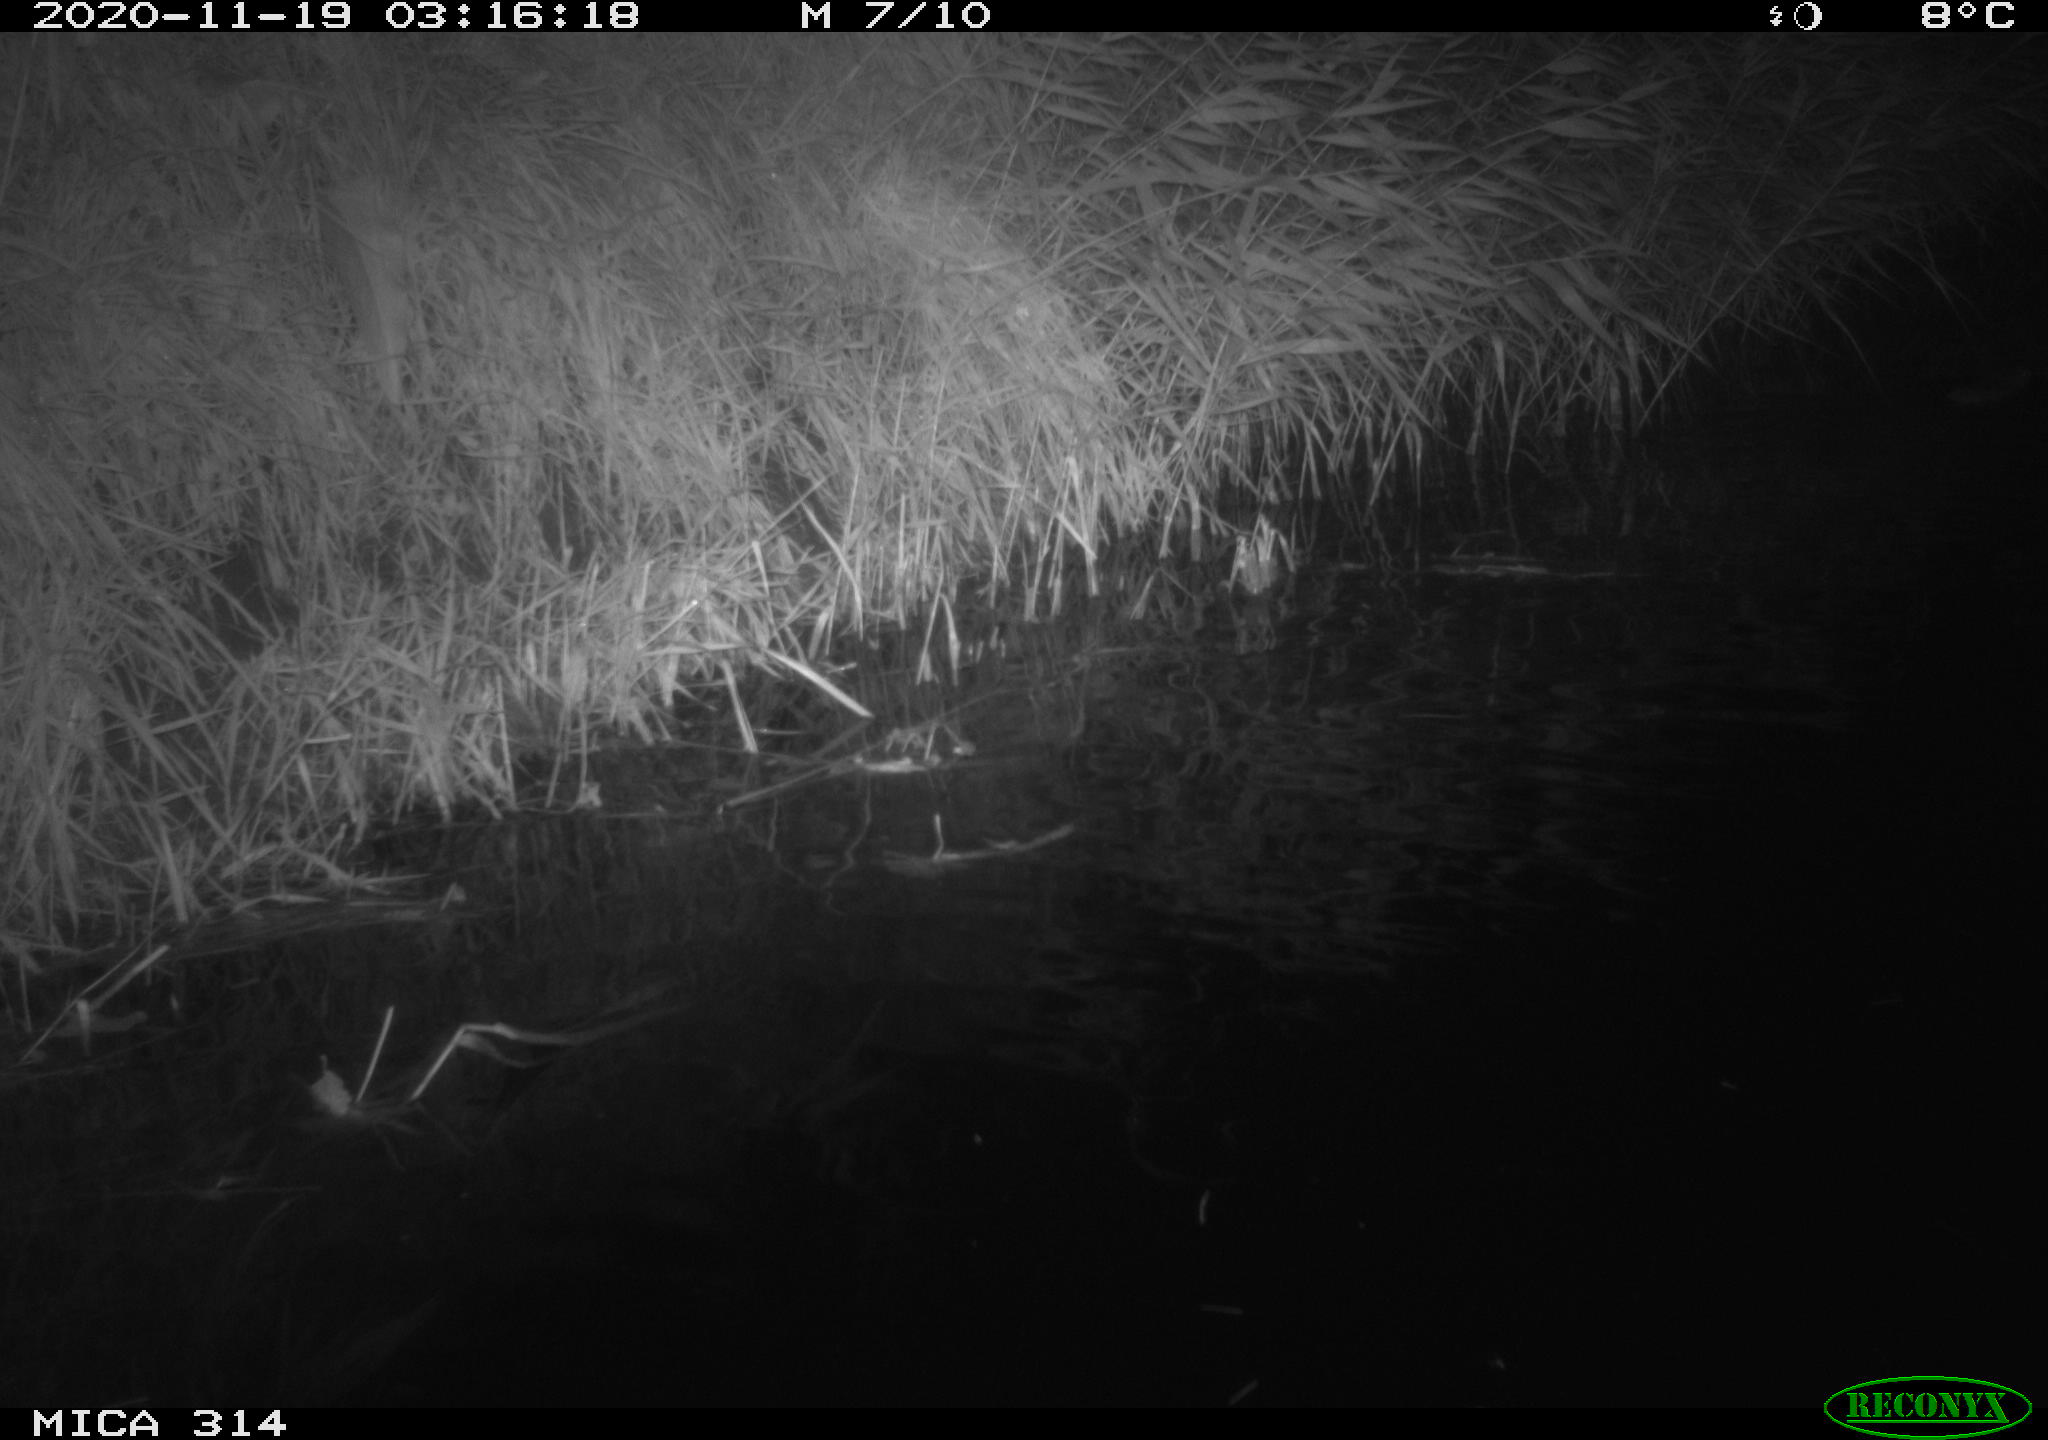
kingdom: Animalia
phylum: Chordata
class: Mammalia
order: Rodentia
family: Muridae
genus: Rattus
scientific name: Rattus norvegicus
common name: Brown rat
